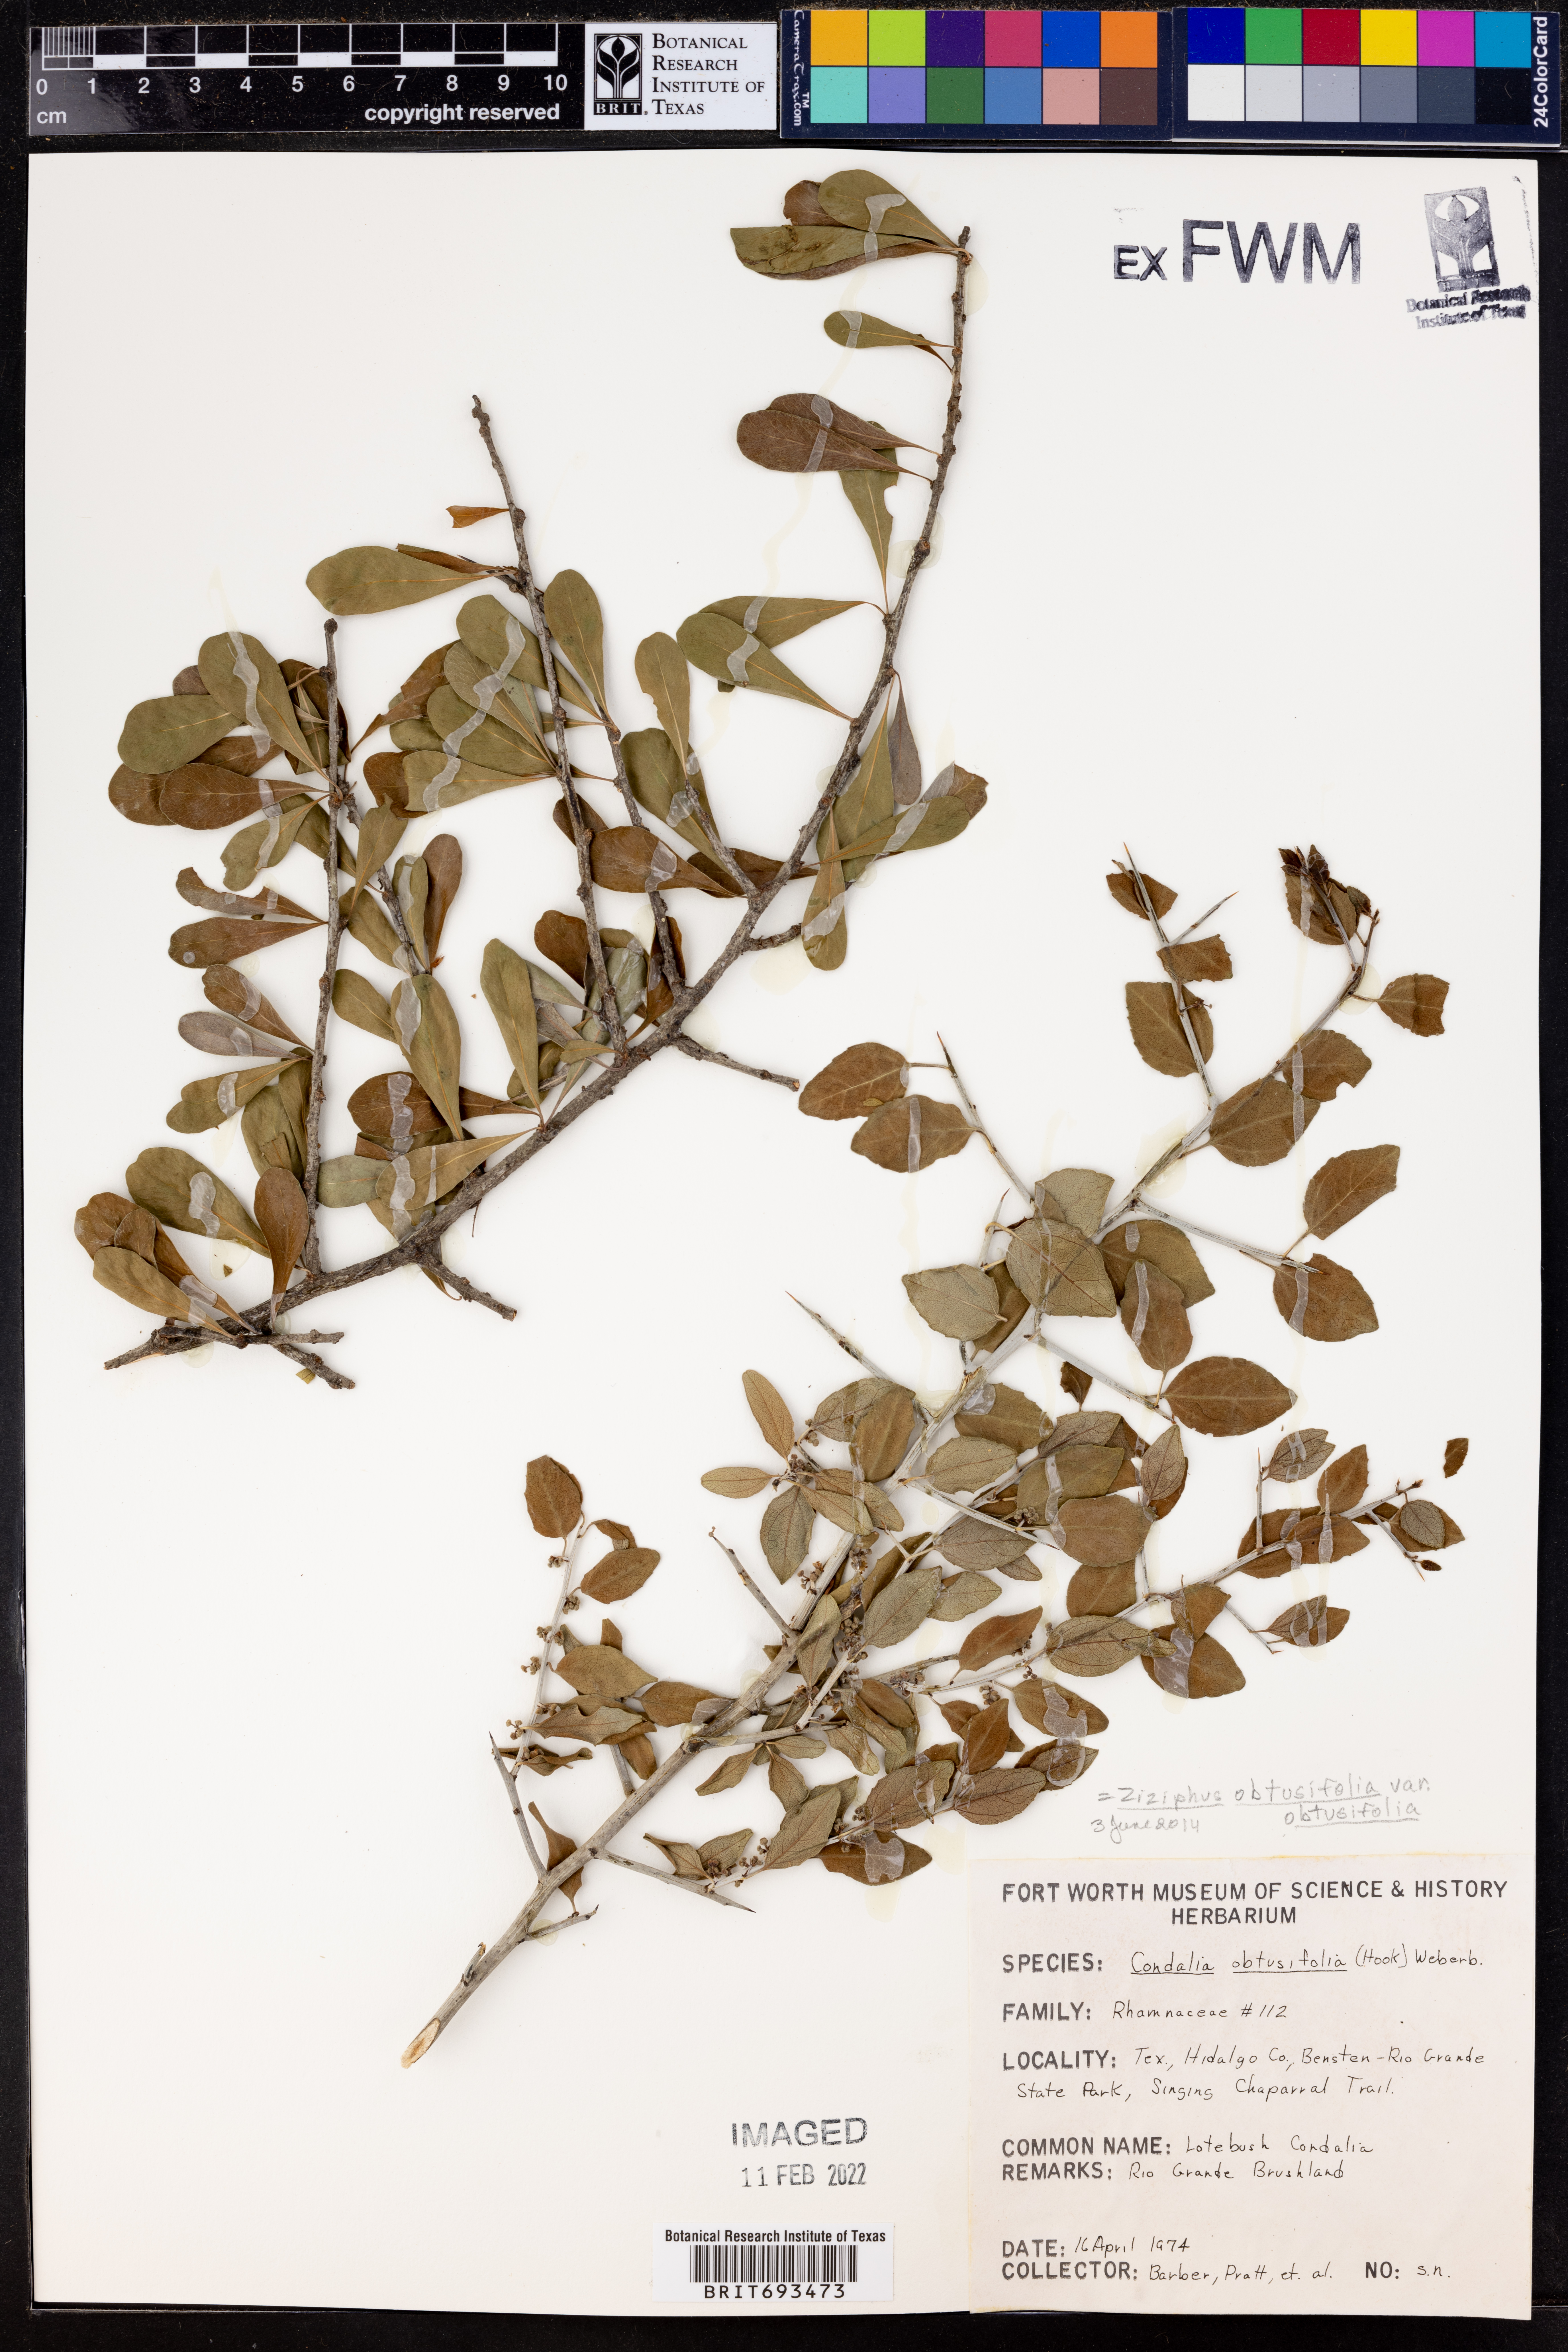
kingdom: Plantae
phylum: Tracheophyta
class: Magnoliopsida
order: Rosales
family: Rhamnaceae
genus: Sarcomphalus
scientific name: Sarcomphalus obtusifolius
